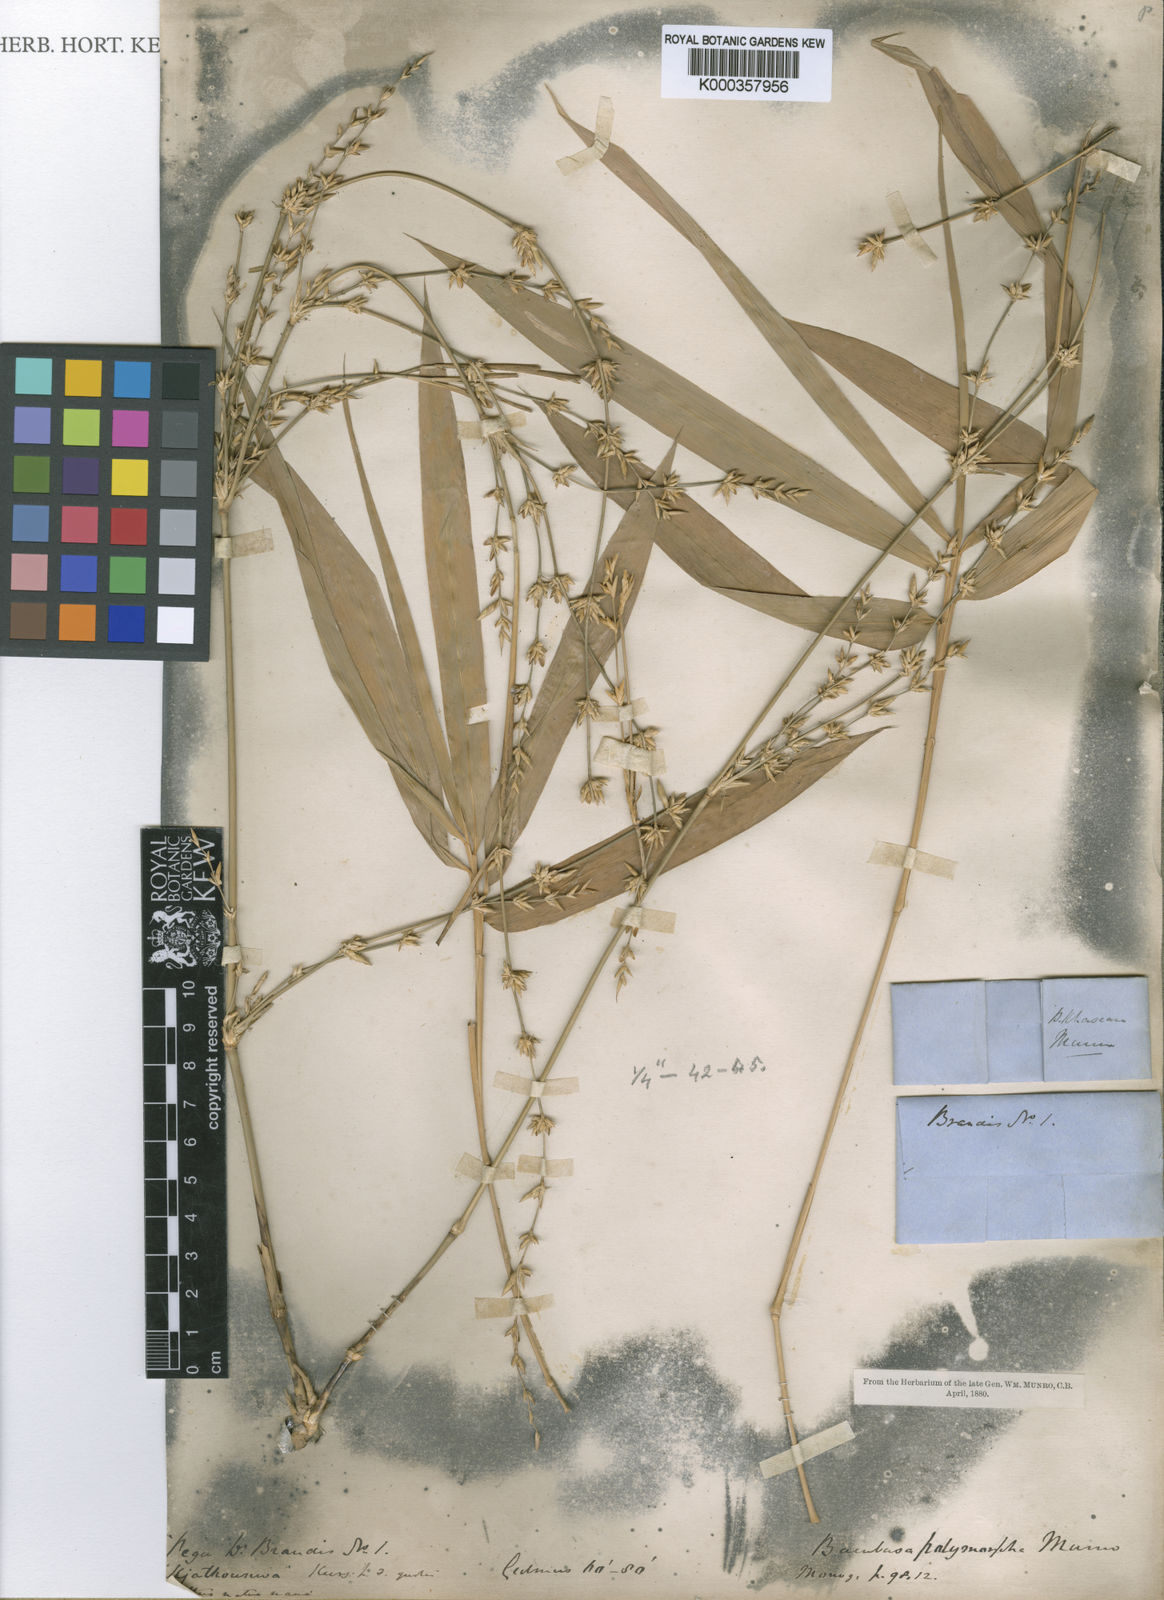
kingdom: Plantae
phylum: Tracheophyta
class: Liliopsida
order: Poales
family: Poaceae
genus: Bambusa
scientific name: Bambusa polymorpha
